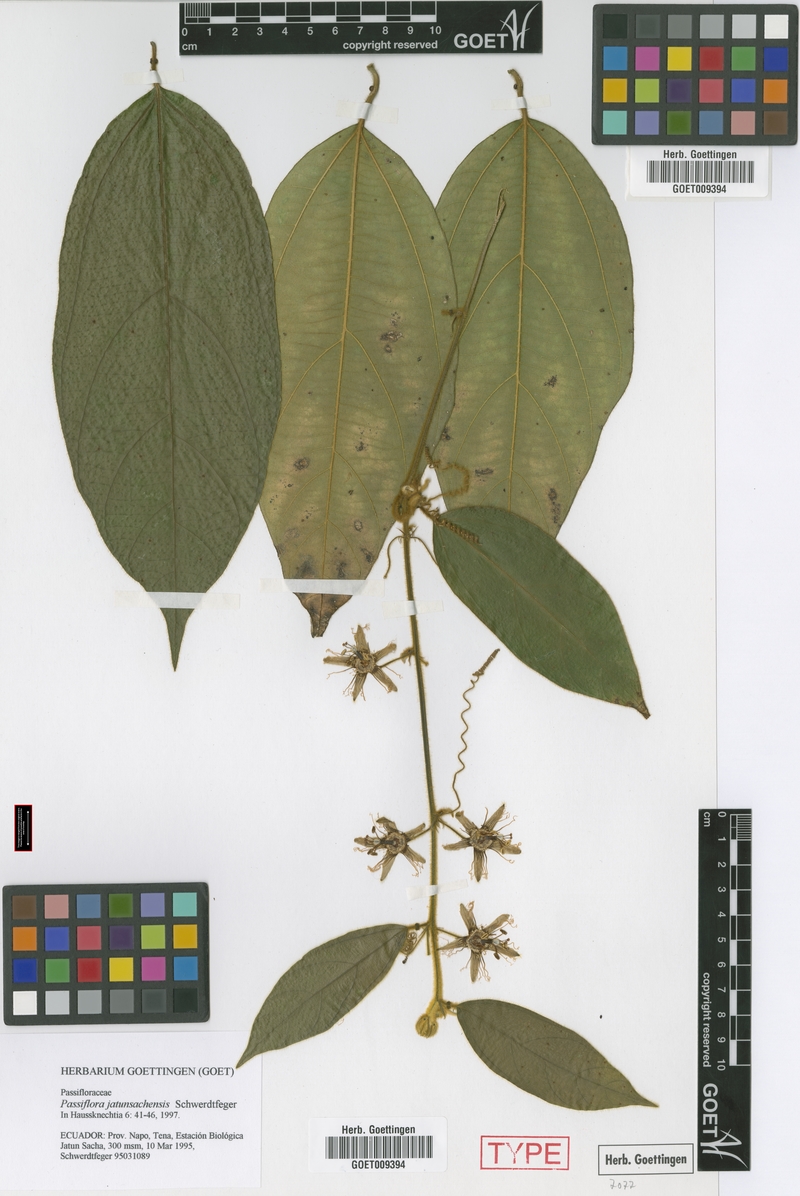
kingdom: Plantae
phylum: Tracheophyta
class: Magnoliopsida
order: Malpighiales
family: Passifloraceae
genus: Passiflora
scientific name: Passiflora jatunsachensis
